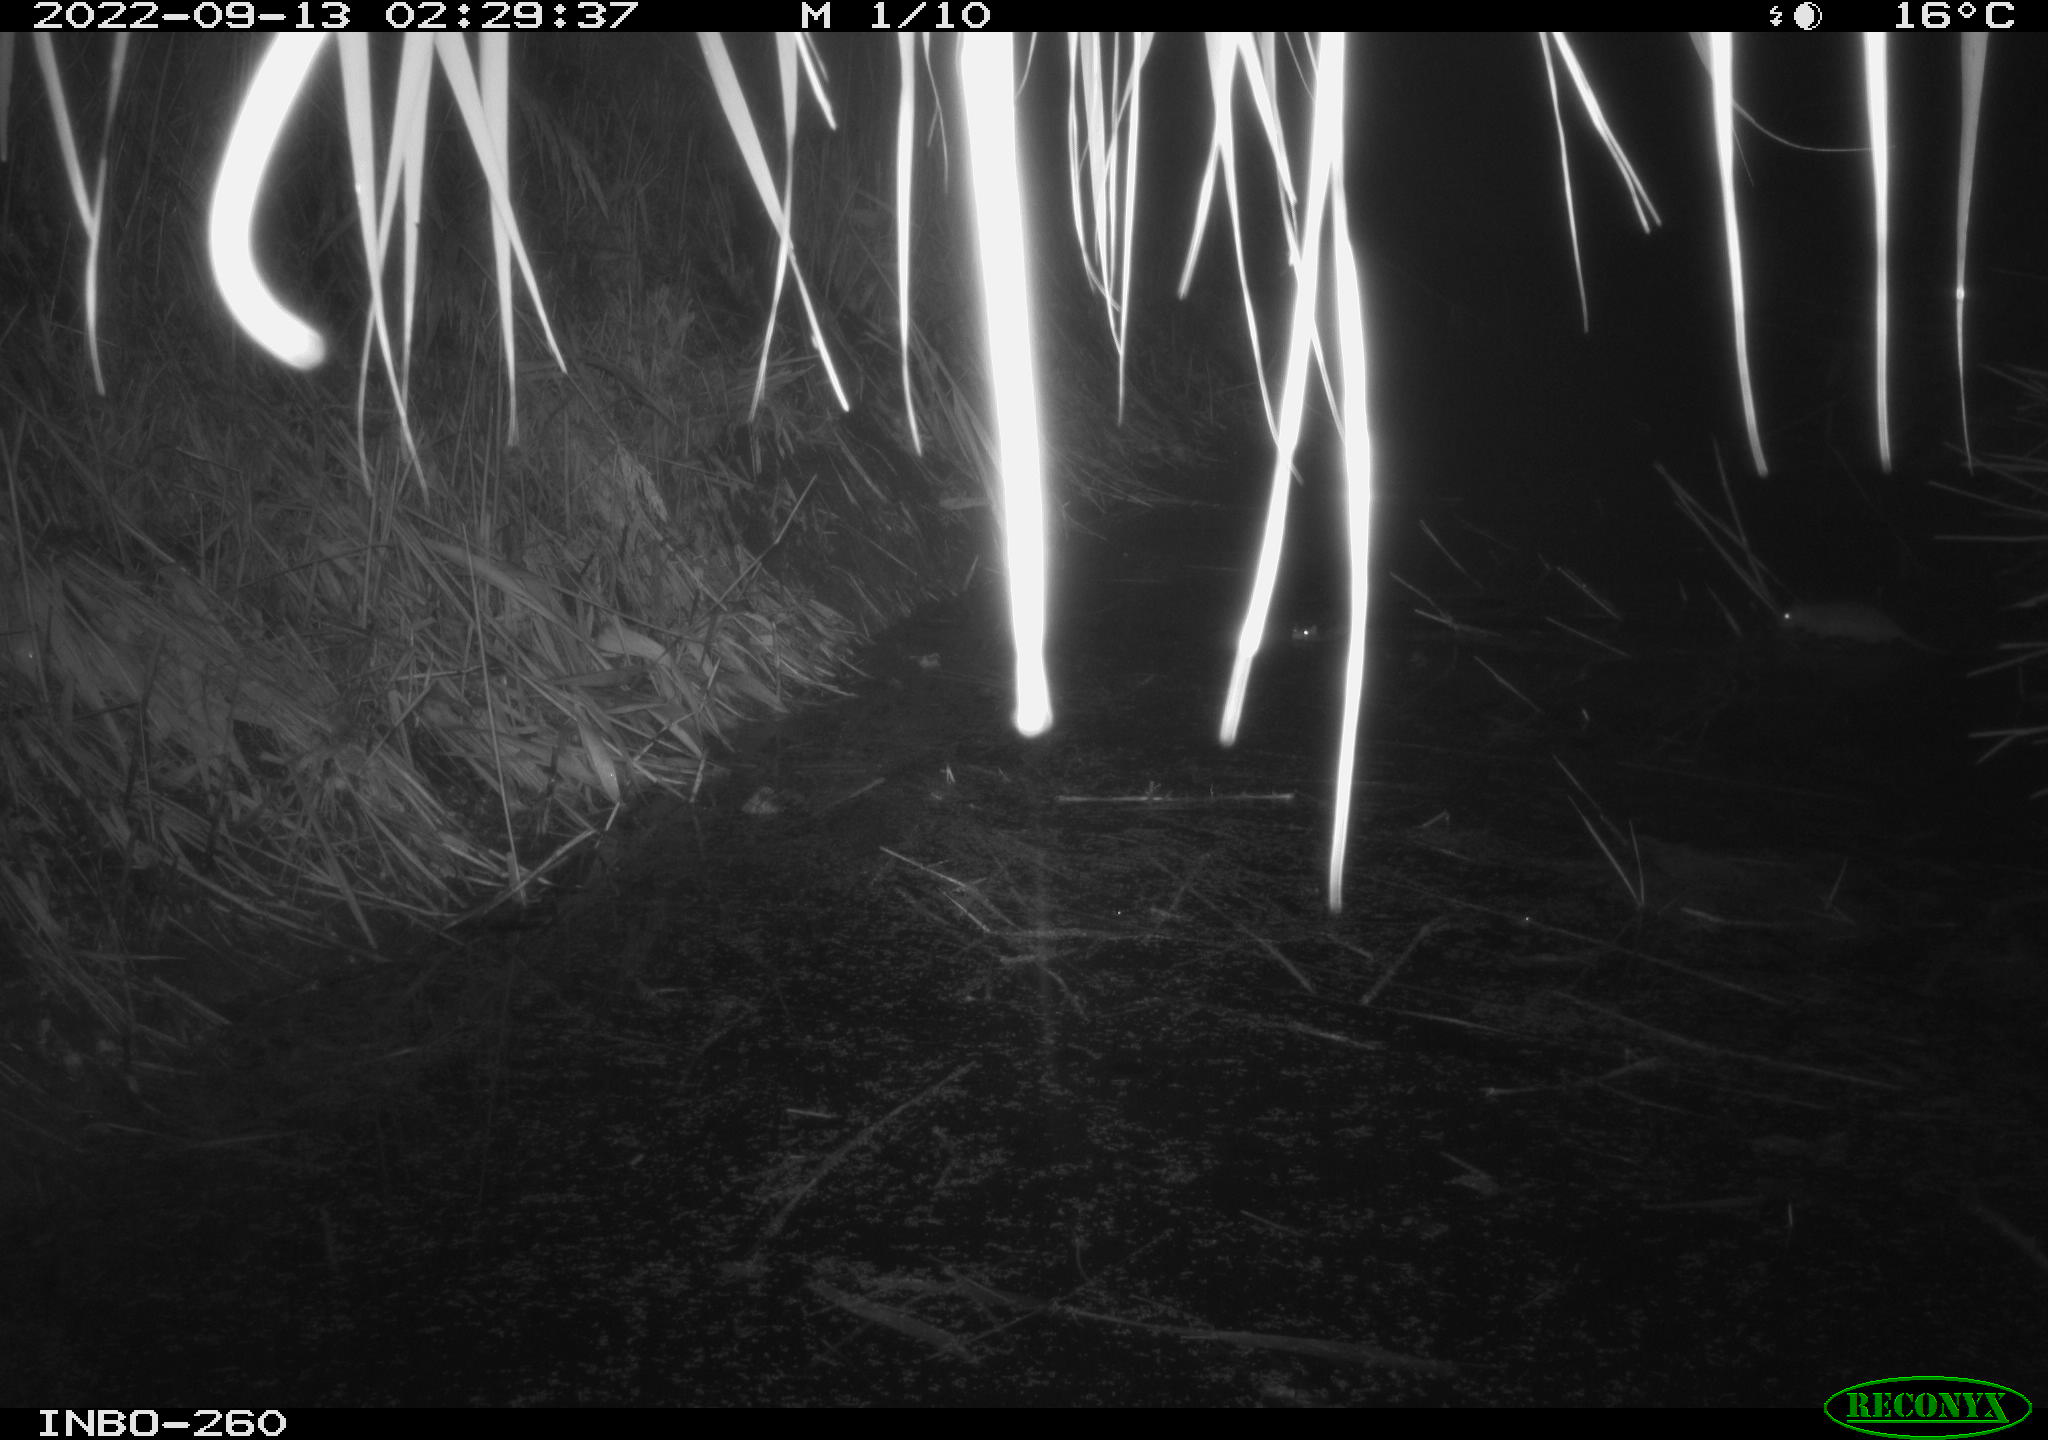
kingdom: Animalia
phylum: Chordata
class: Mammalia
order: Rodentia
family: Muridae
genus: Rattus
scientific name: Rattus norvegicus
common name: Brown rat
